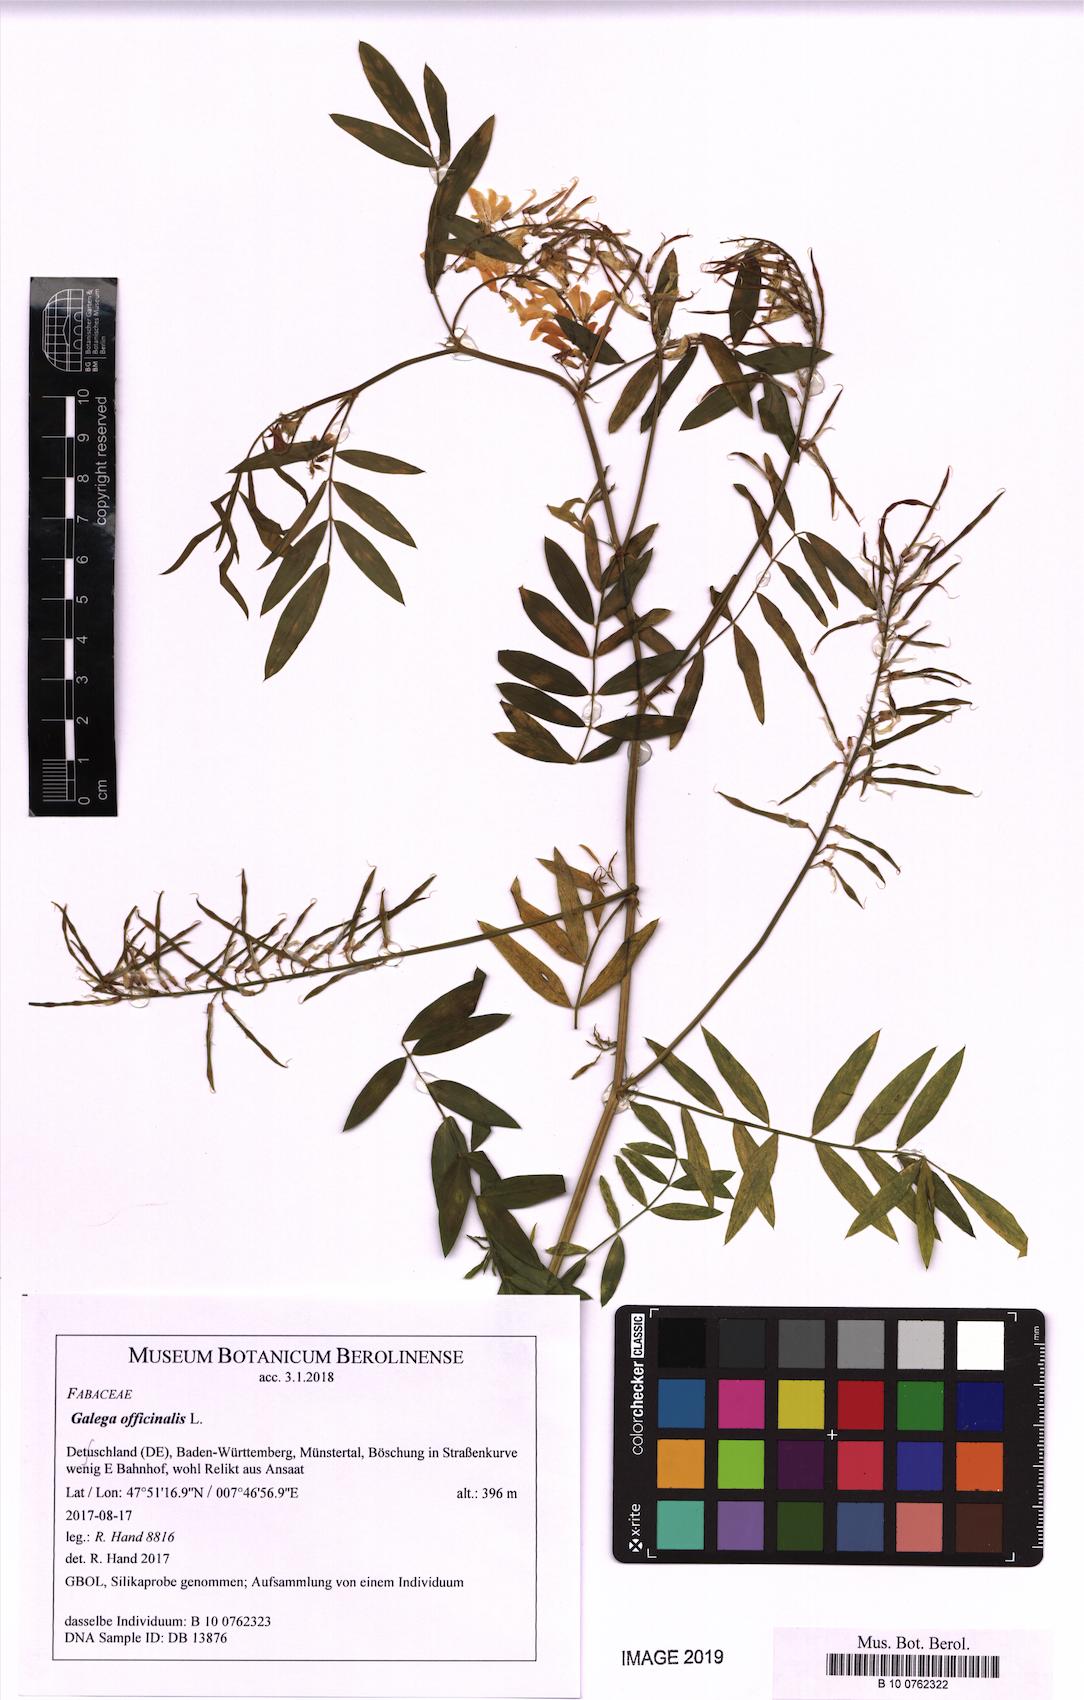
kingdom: Plantae
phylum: Tracheophyta
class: Magnoliopsida
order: Fabales
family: Fabaceae
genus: Galega
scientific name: Galega officinalis
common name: Goat's-rue
